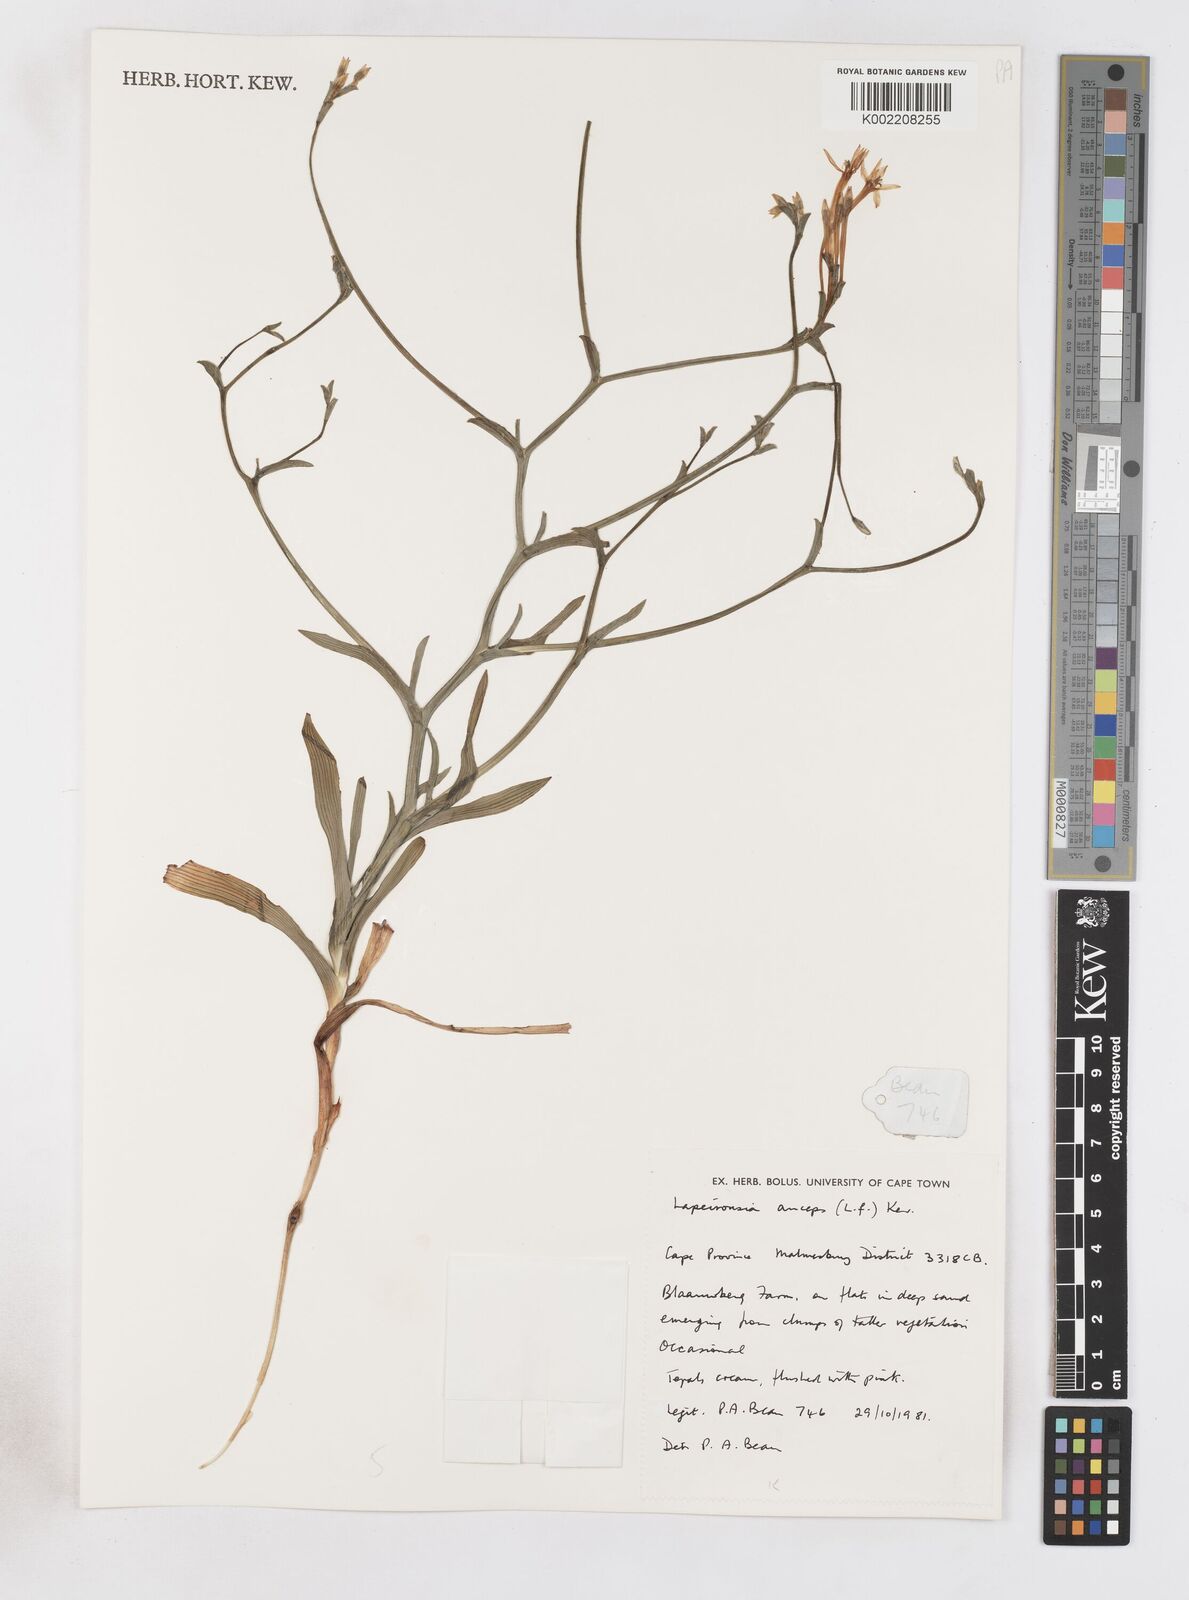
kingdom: Plantae
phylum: Tracheophyta
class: Liliopsida
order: Asparagales
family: Iridaceae
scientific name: Iridaceae
